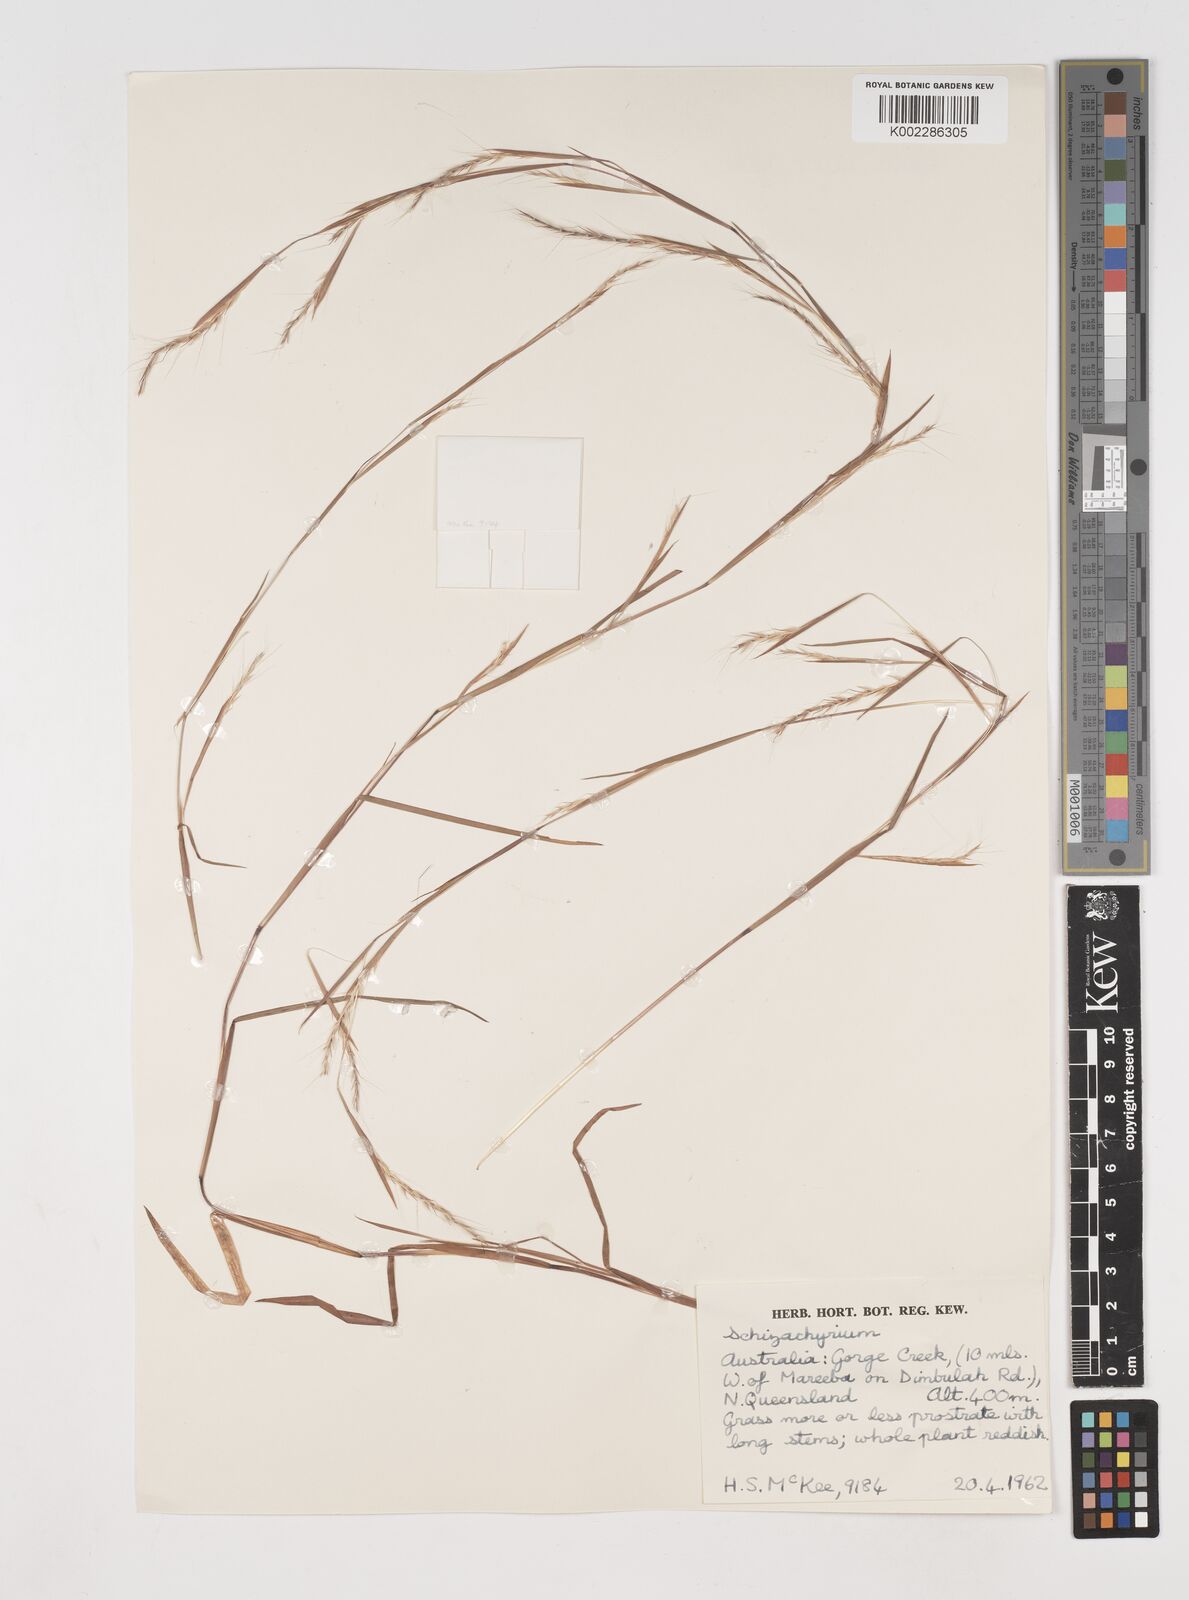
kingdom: Plantae
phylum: Tracheophyta
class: Liliopsida
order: Poales
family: Poaceae
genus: Schizachyrium
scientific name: Schizachyrium
